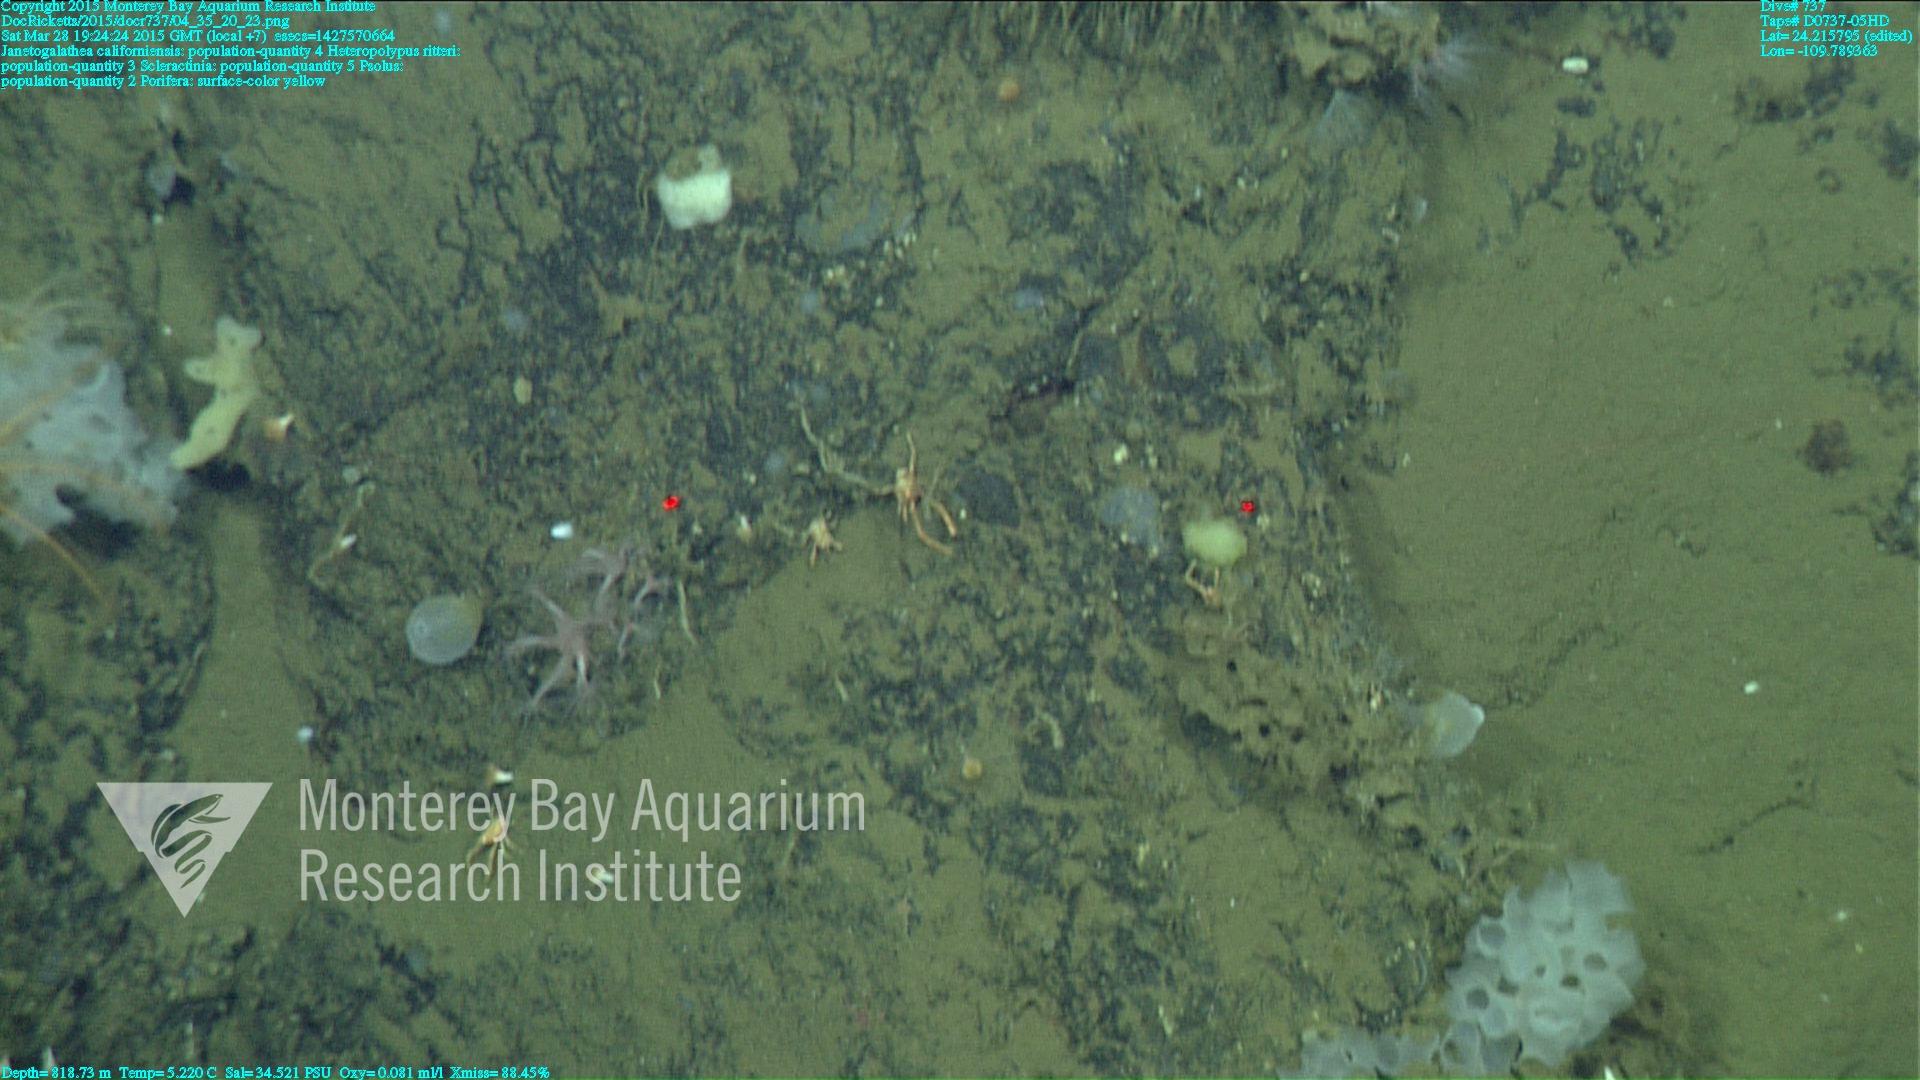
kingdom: Animalia
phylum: Cnidaria
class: Anthozoa
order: Scleractinia
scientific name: Scleractinia
